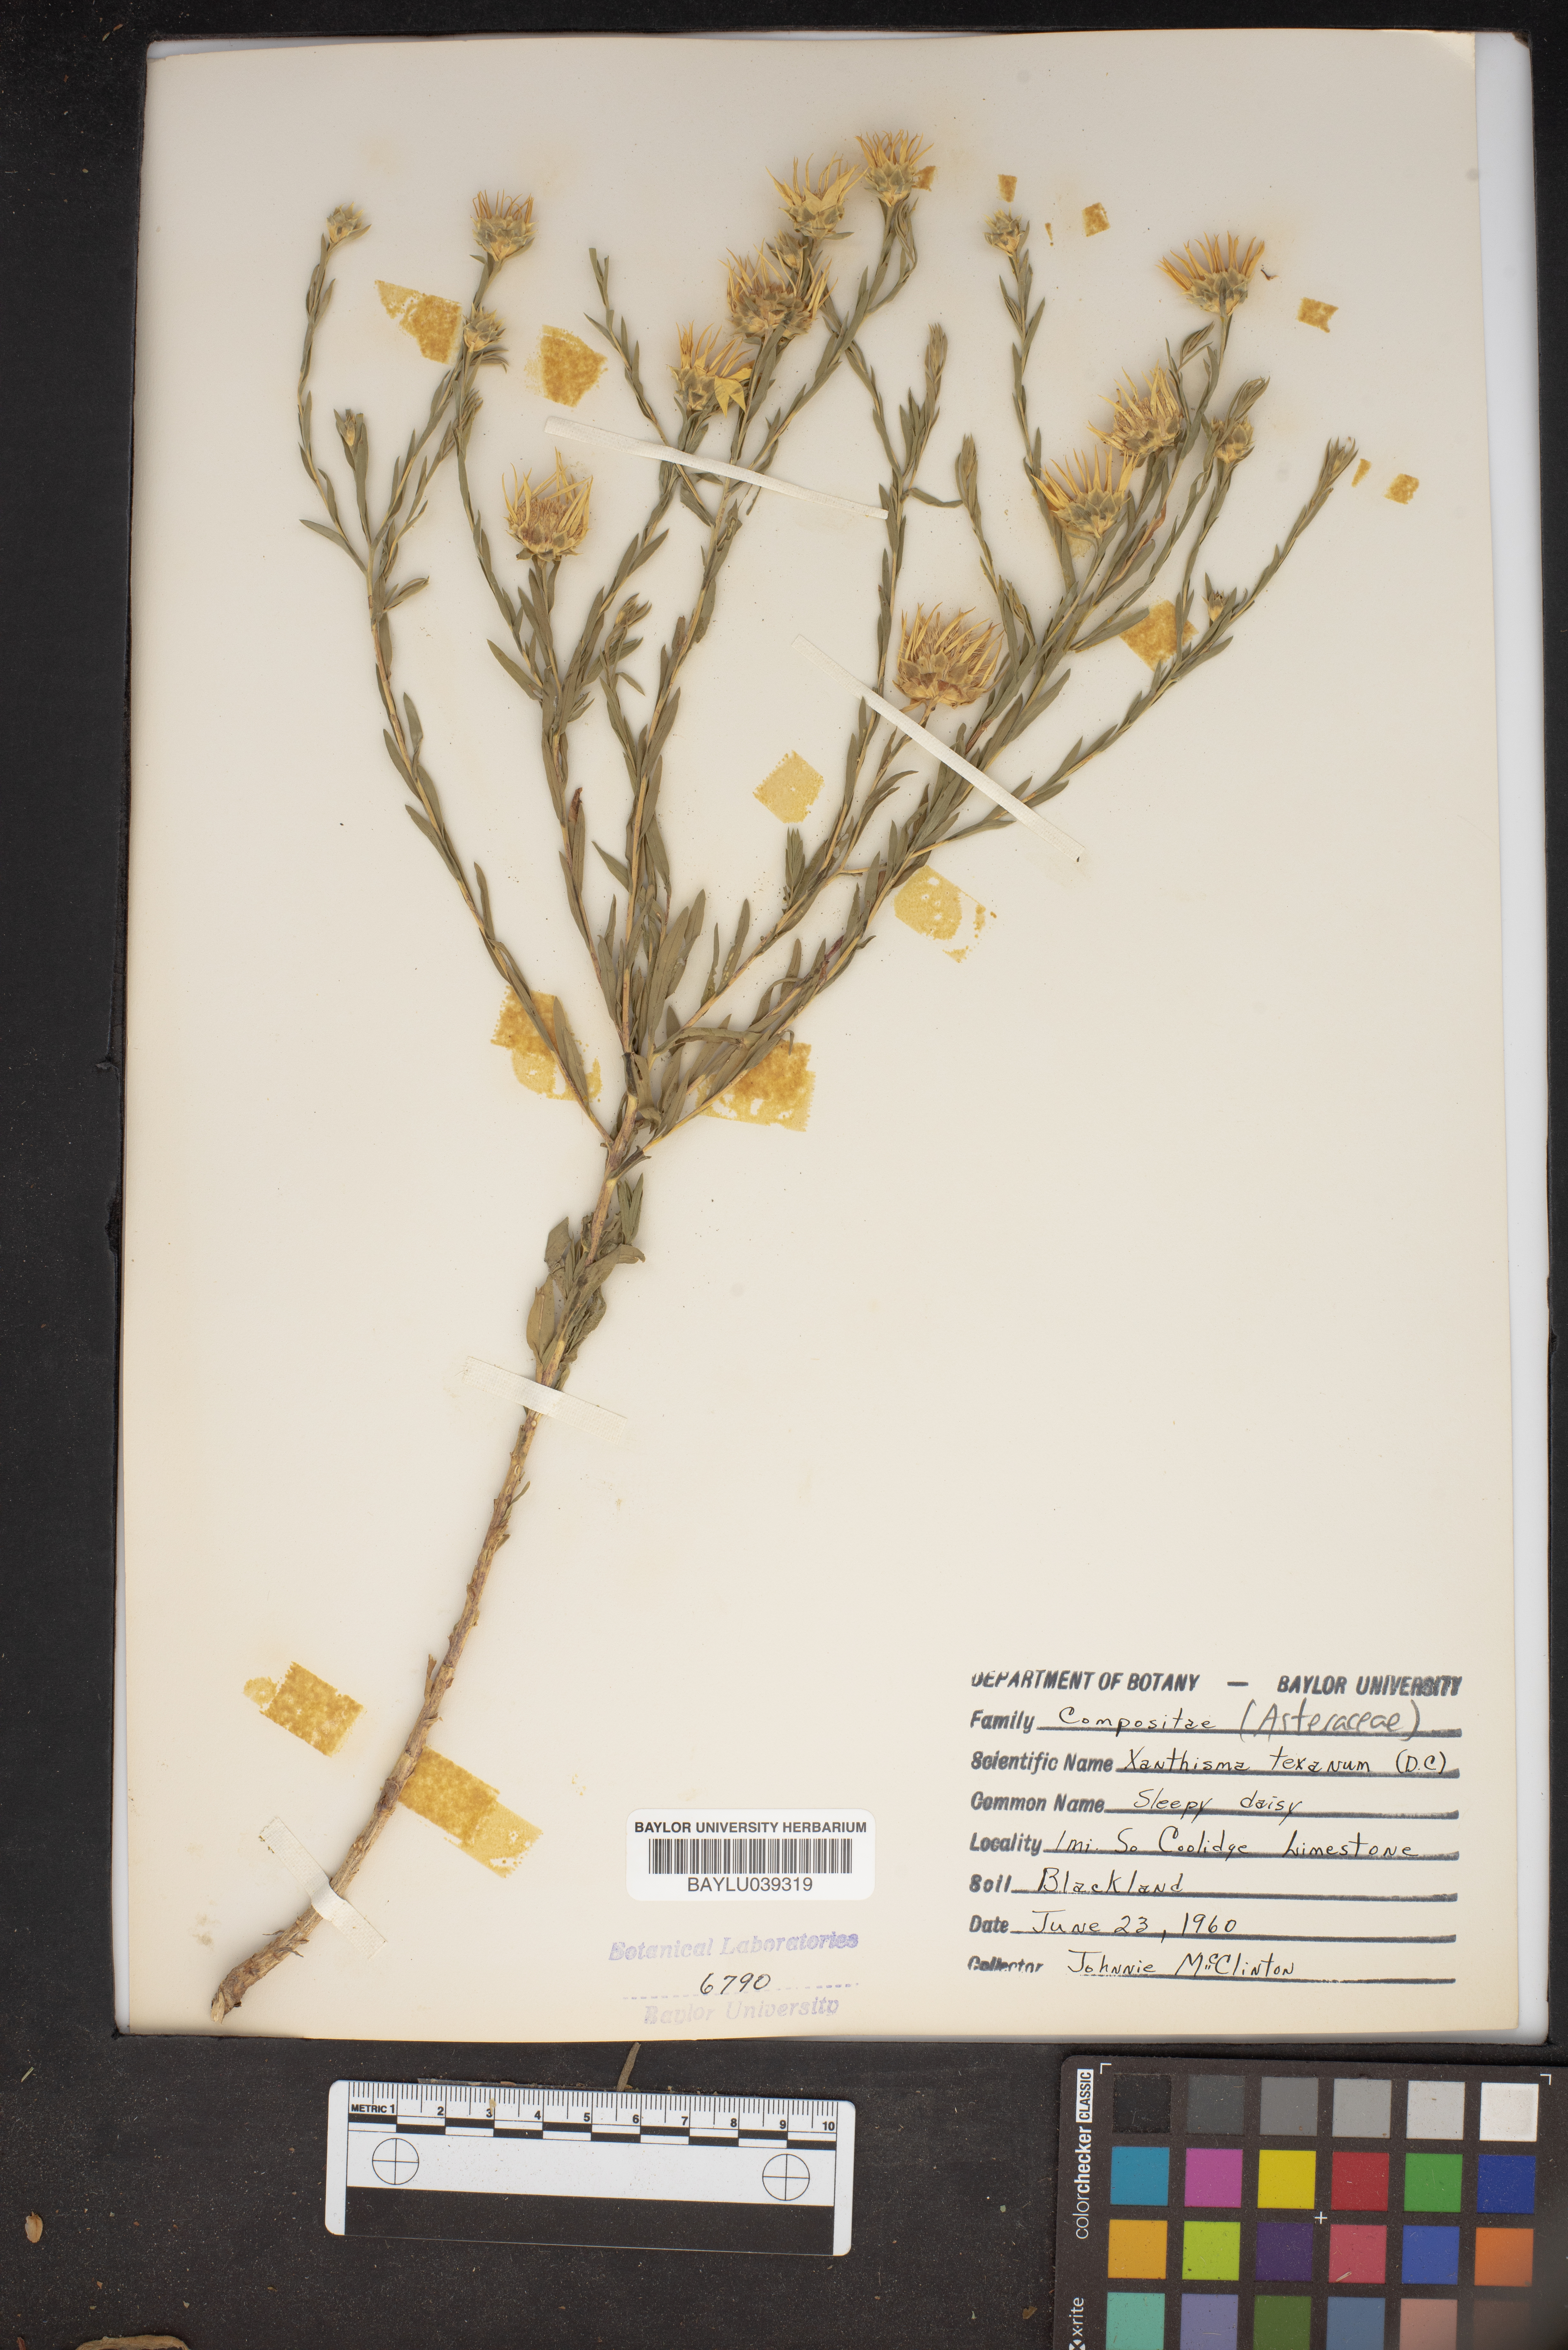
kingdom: Plantae
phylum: Tracheophyta
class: Magnoliopsida
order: Asterales
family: Asteraceae
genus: Xanthisma
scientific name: Xanthisma texanum
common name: Texas sleepy daisy
